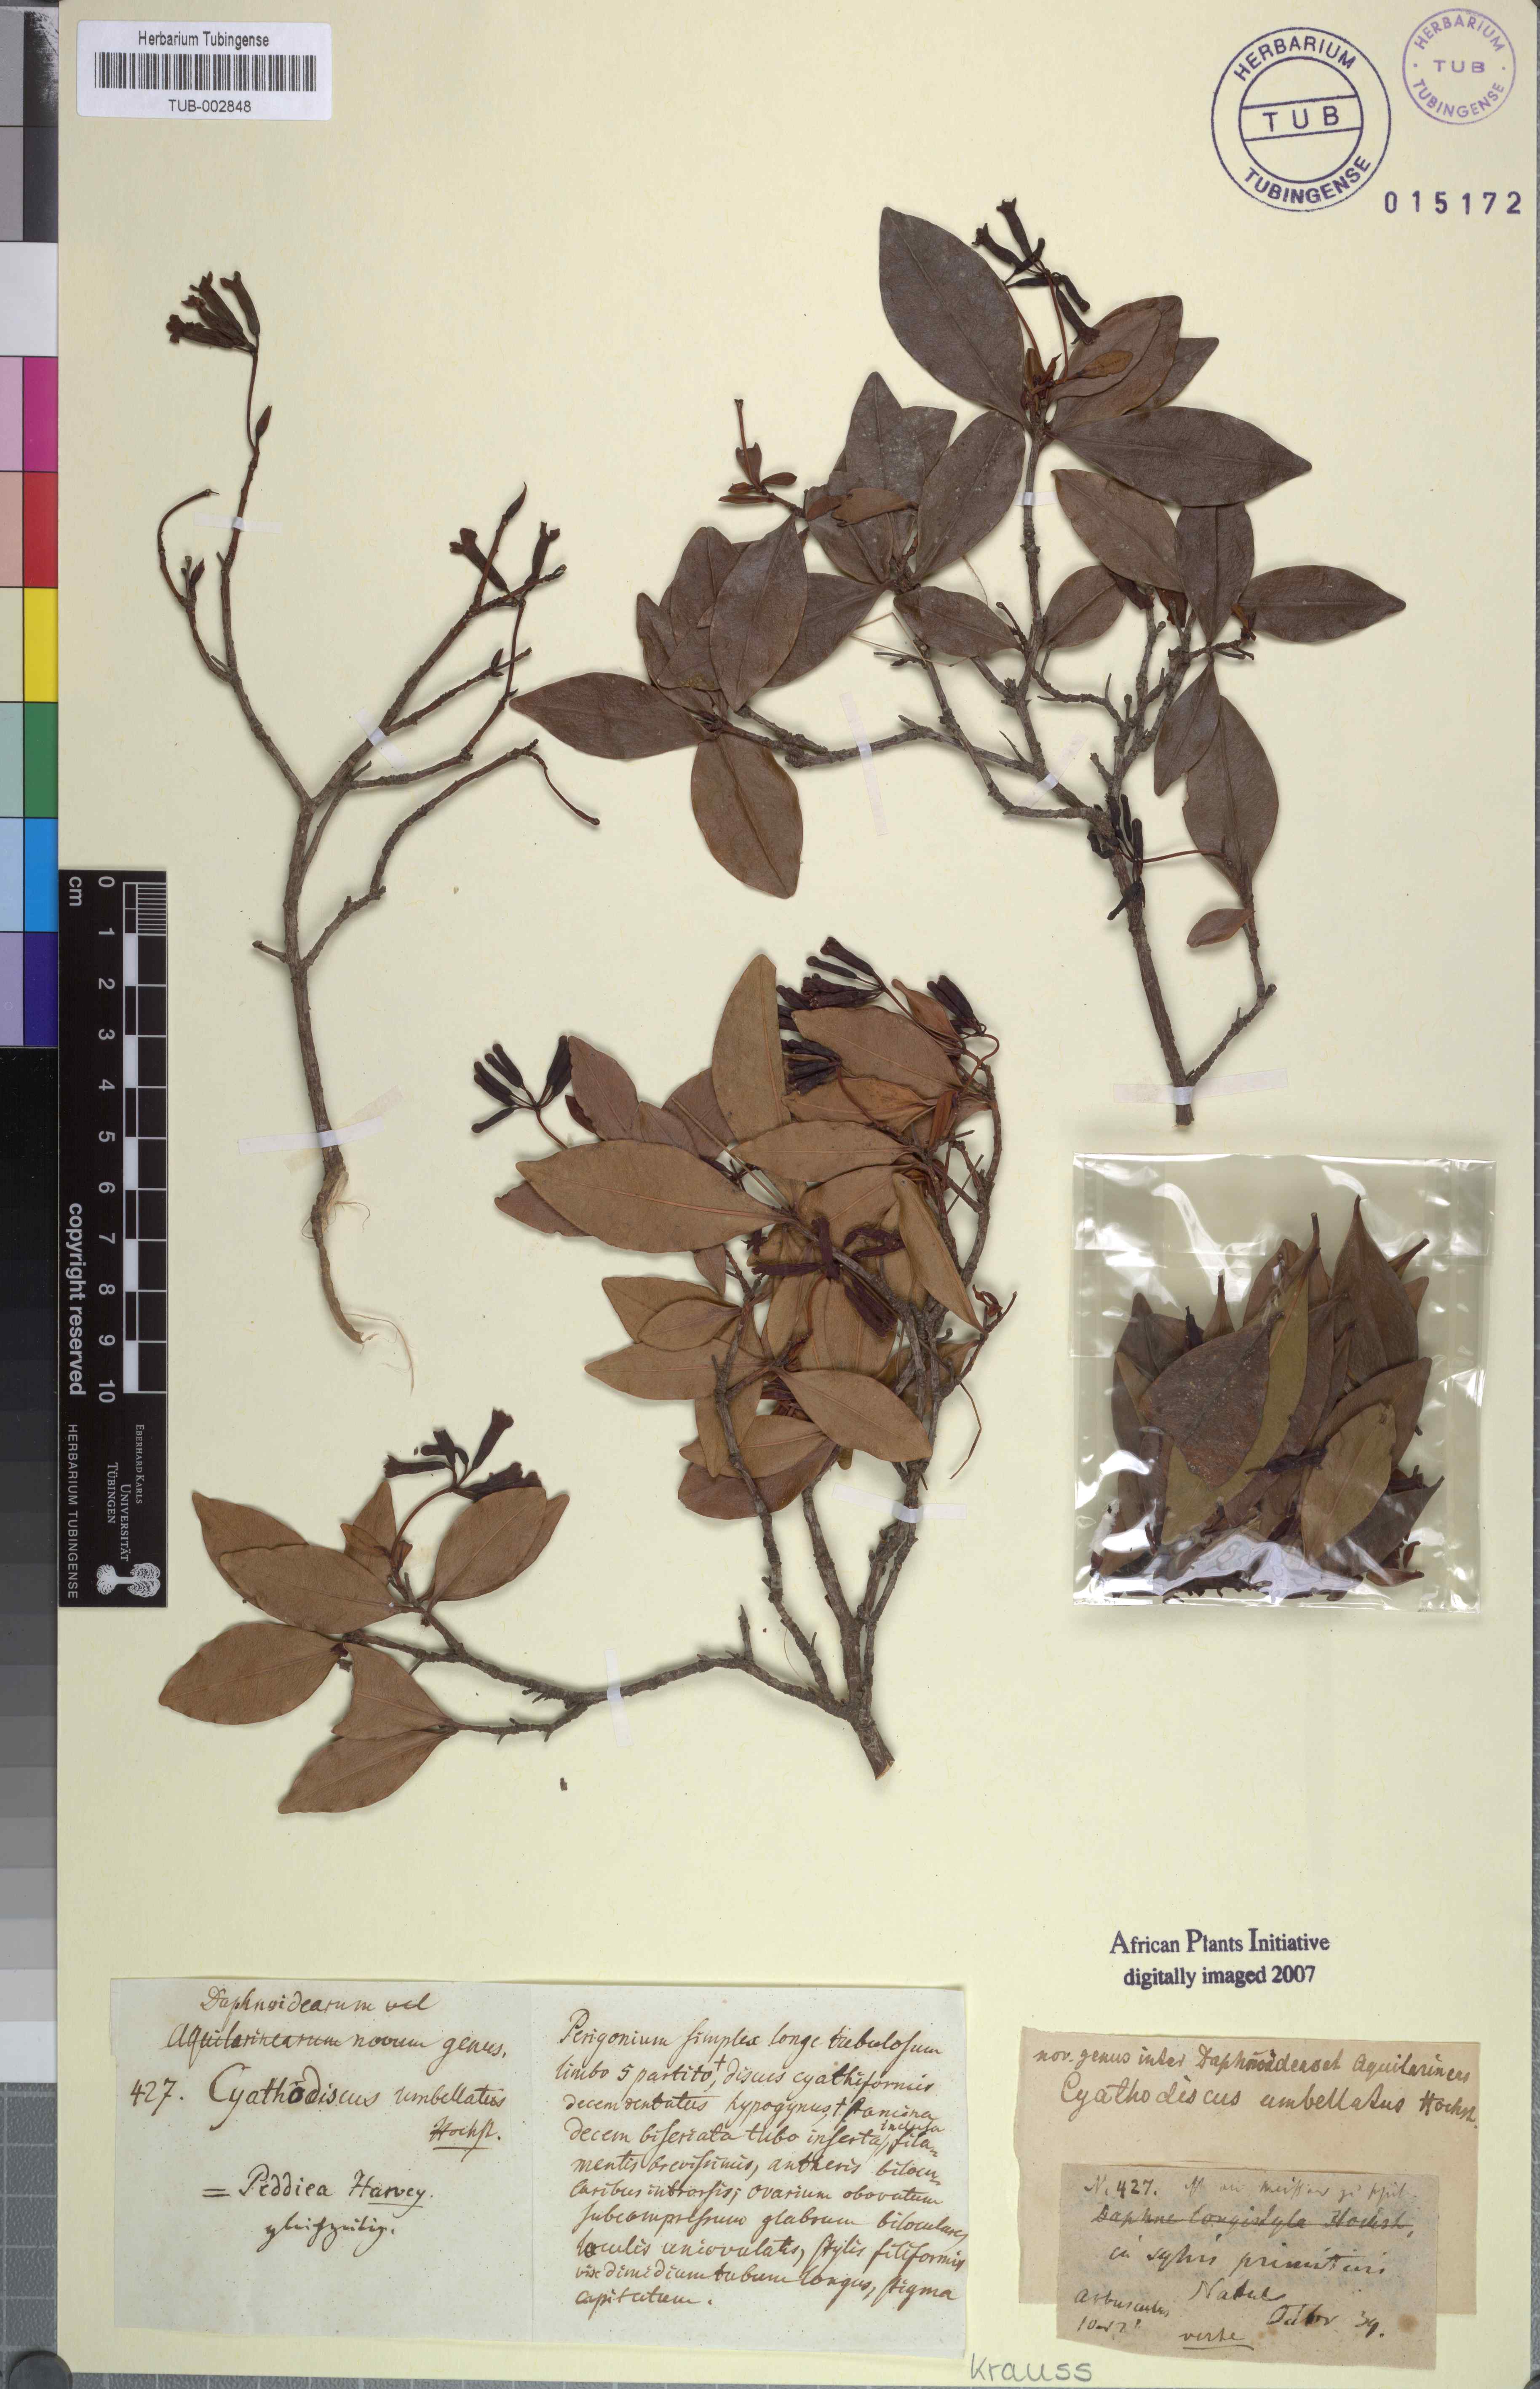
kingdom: Plantae
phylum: Tracheophyta
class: Magnoliopsida
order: Malvales
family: Thymelaeaceae
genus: Peddiea
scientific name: Peddiea africana
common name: Poison olive
